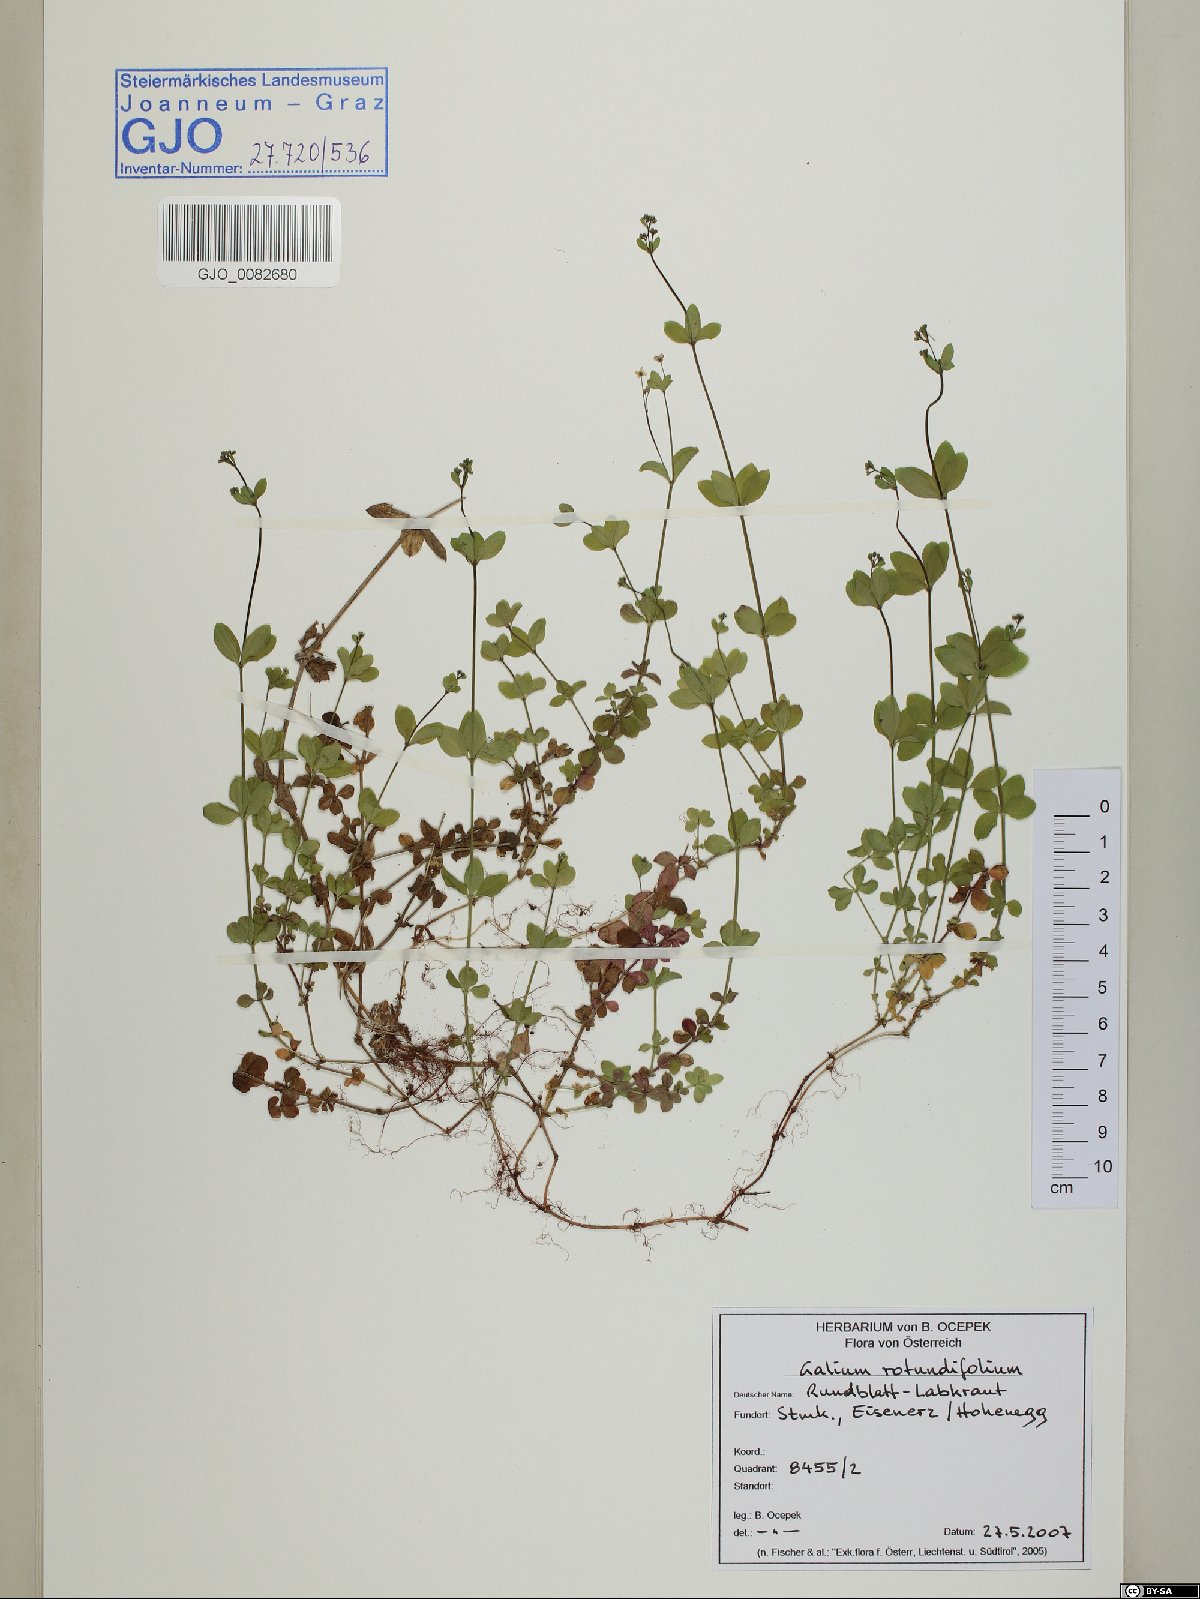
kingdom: Plantae
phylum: Tracheophyta
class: Magnoliopsida
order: Gentianales
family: Rubiaceae
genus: Galium
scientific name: Galium rotundifolium
